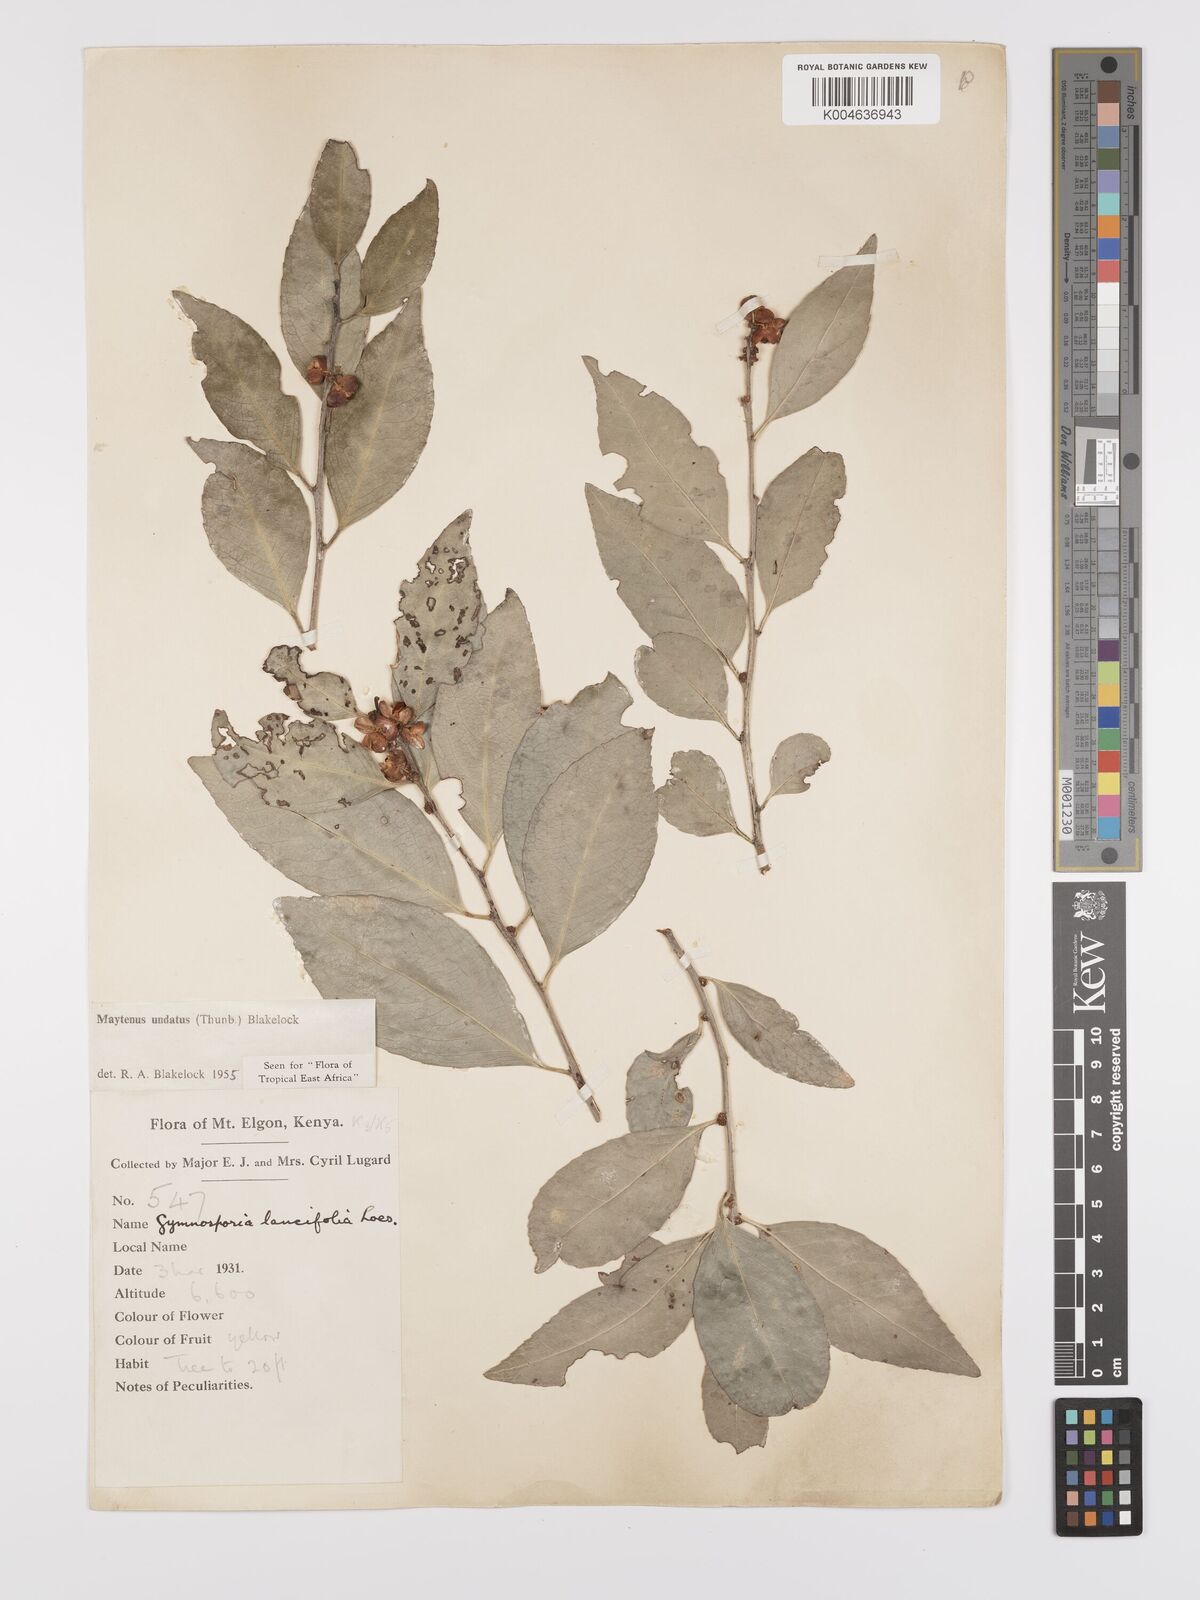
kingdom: Plantae
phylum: Tracheophyta
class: Magnoliopsida
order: Celastrales
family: Celastraceae
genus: Gymnosporia
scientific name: Gymnosporia undata
